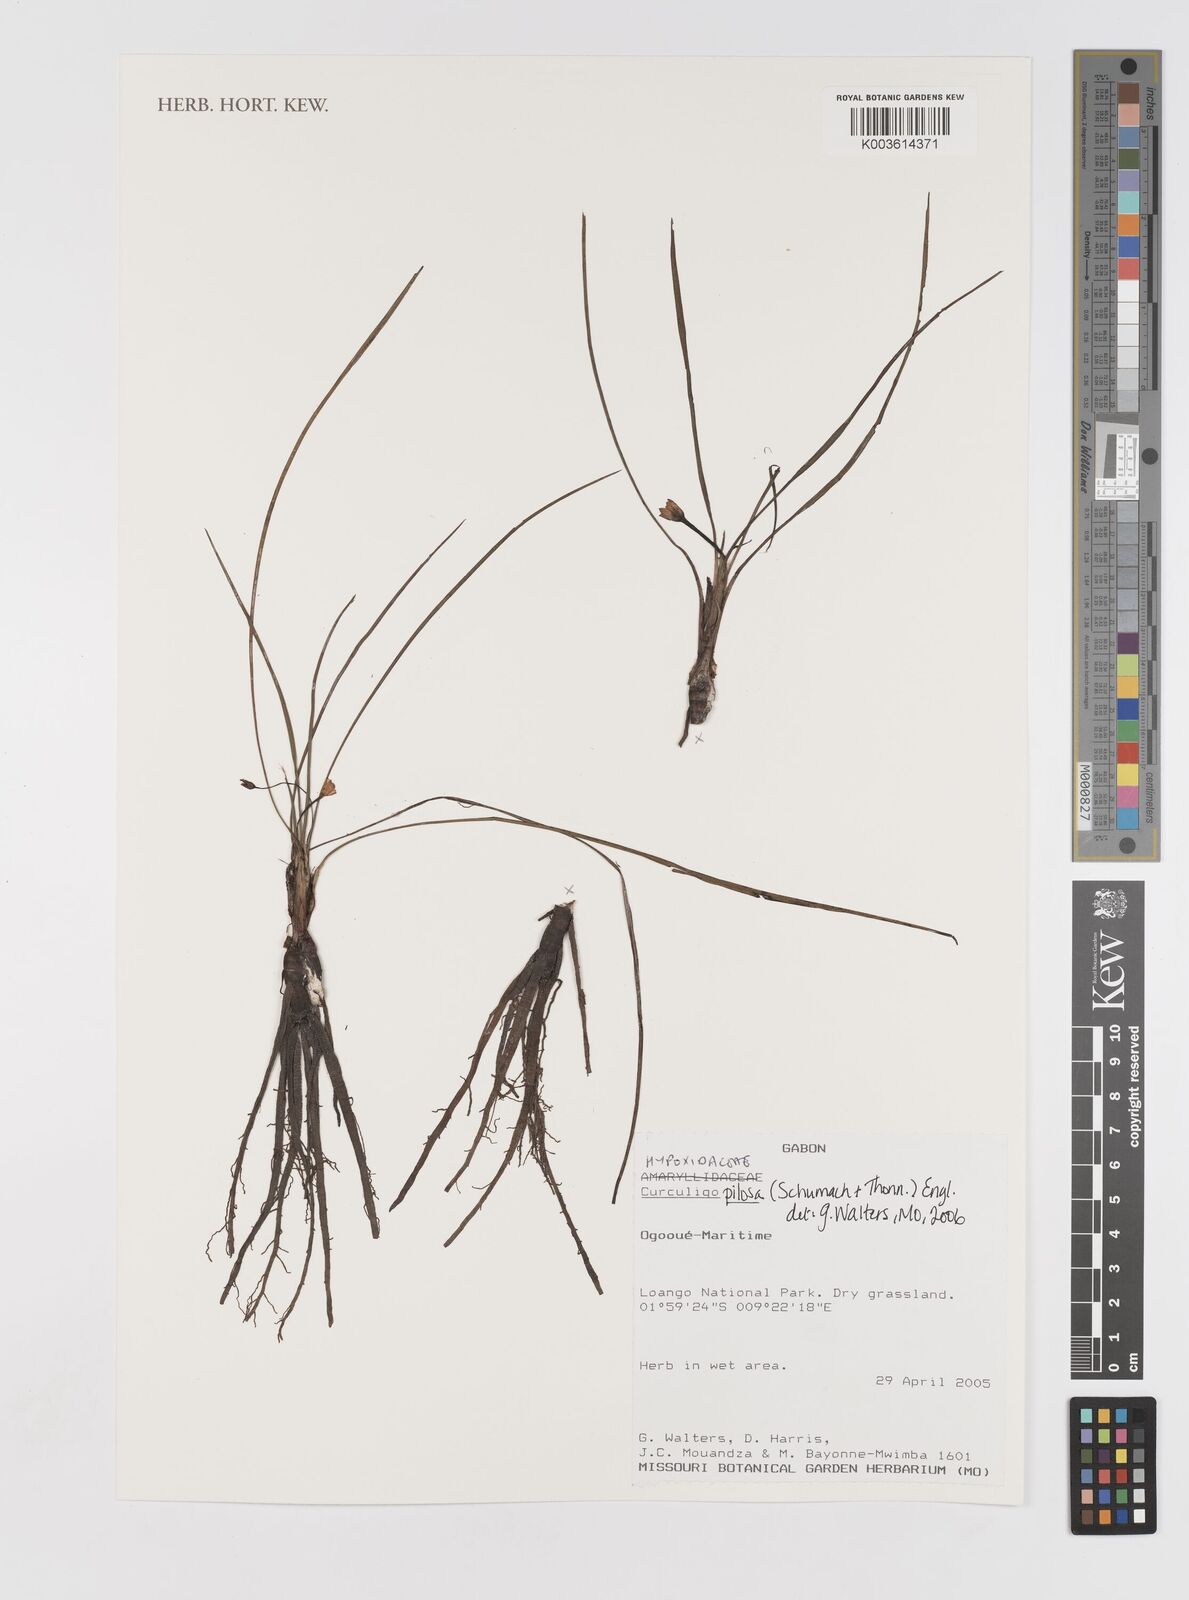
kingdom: Plantae
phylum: Tracheophyta
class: Liliopsida
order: Asparagales
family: Hypoxidaceae
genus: Curculigo
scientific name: Curculigo pilosa
